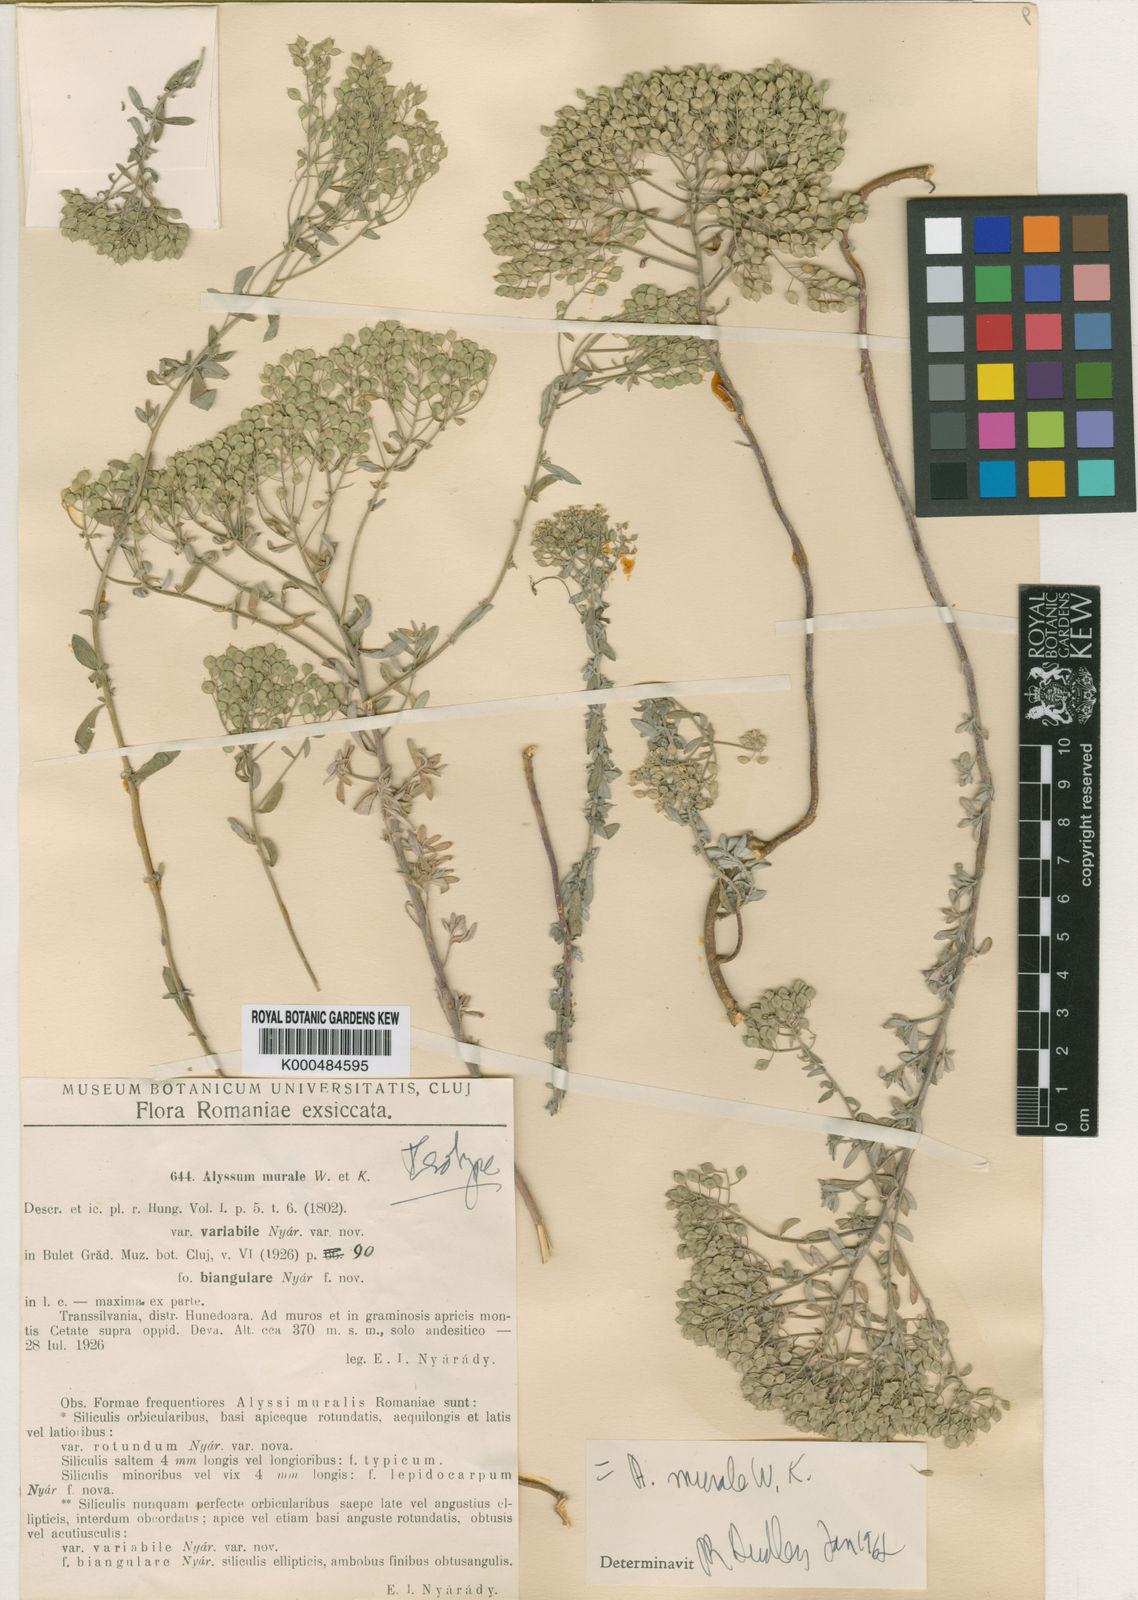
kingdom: Plantae
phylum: Tracheophyta
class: Magnoliopsida
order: Brassicales
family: Brassicaceae
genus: Odontarrhena
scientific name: Odontarrhena muralis
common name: Rock alyssum
